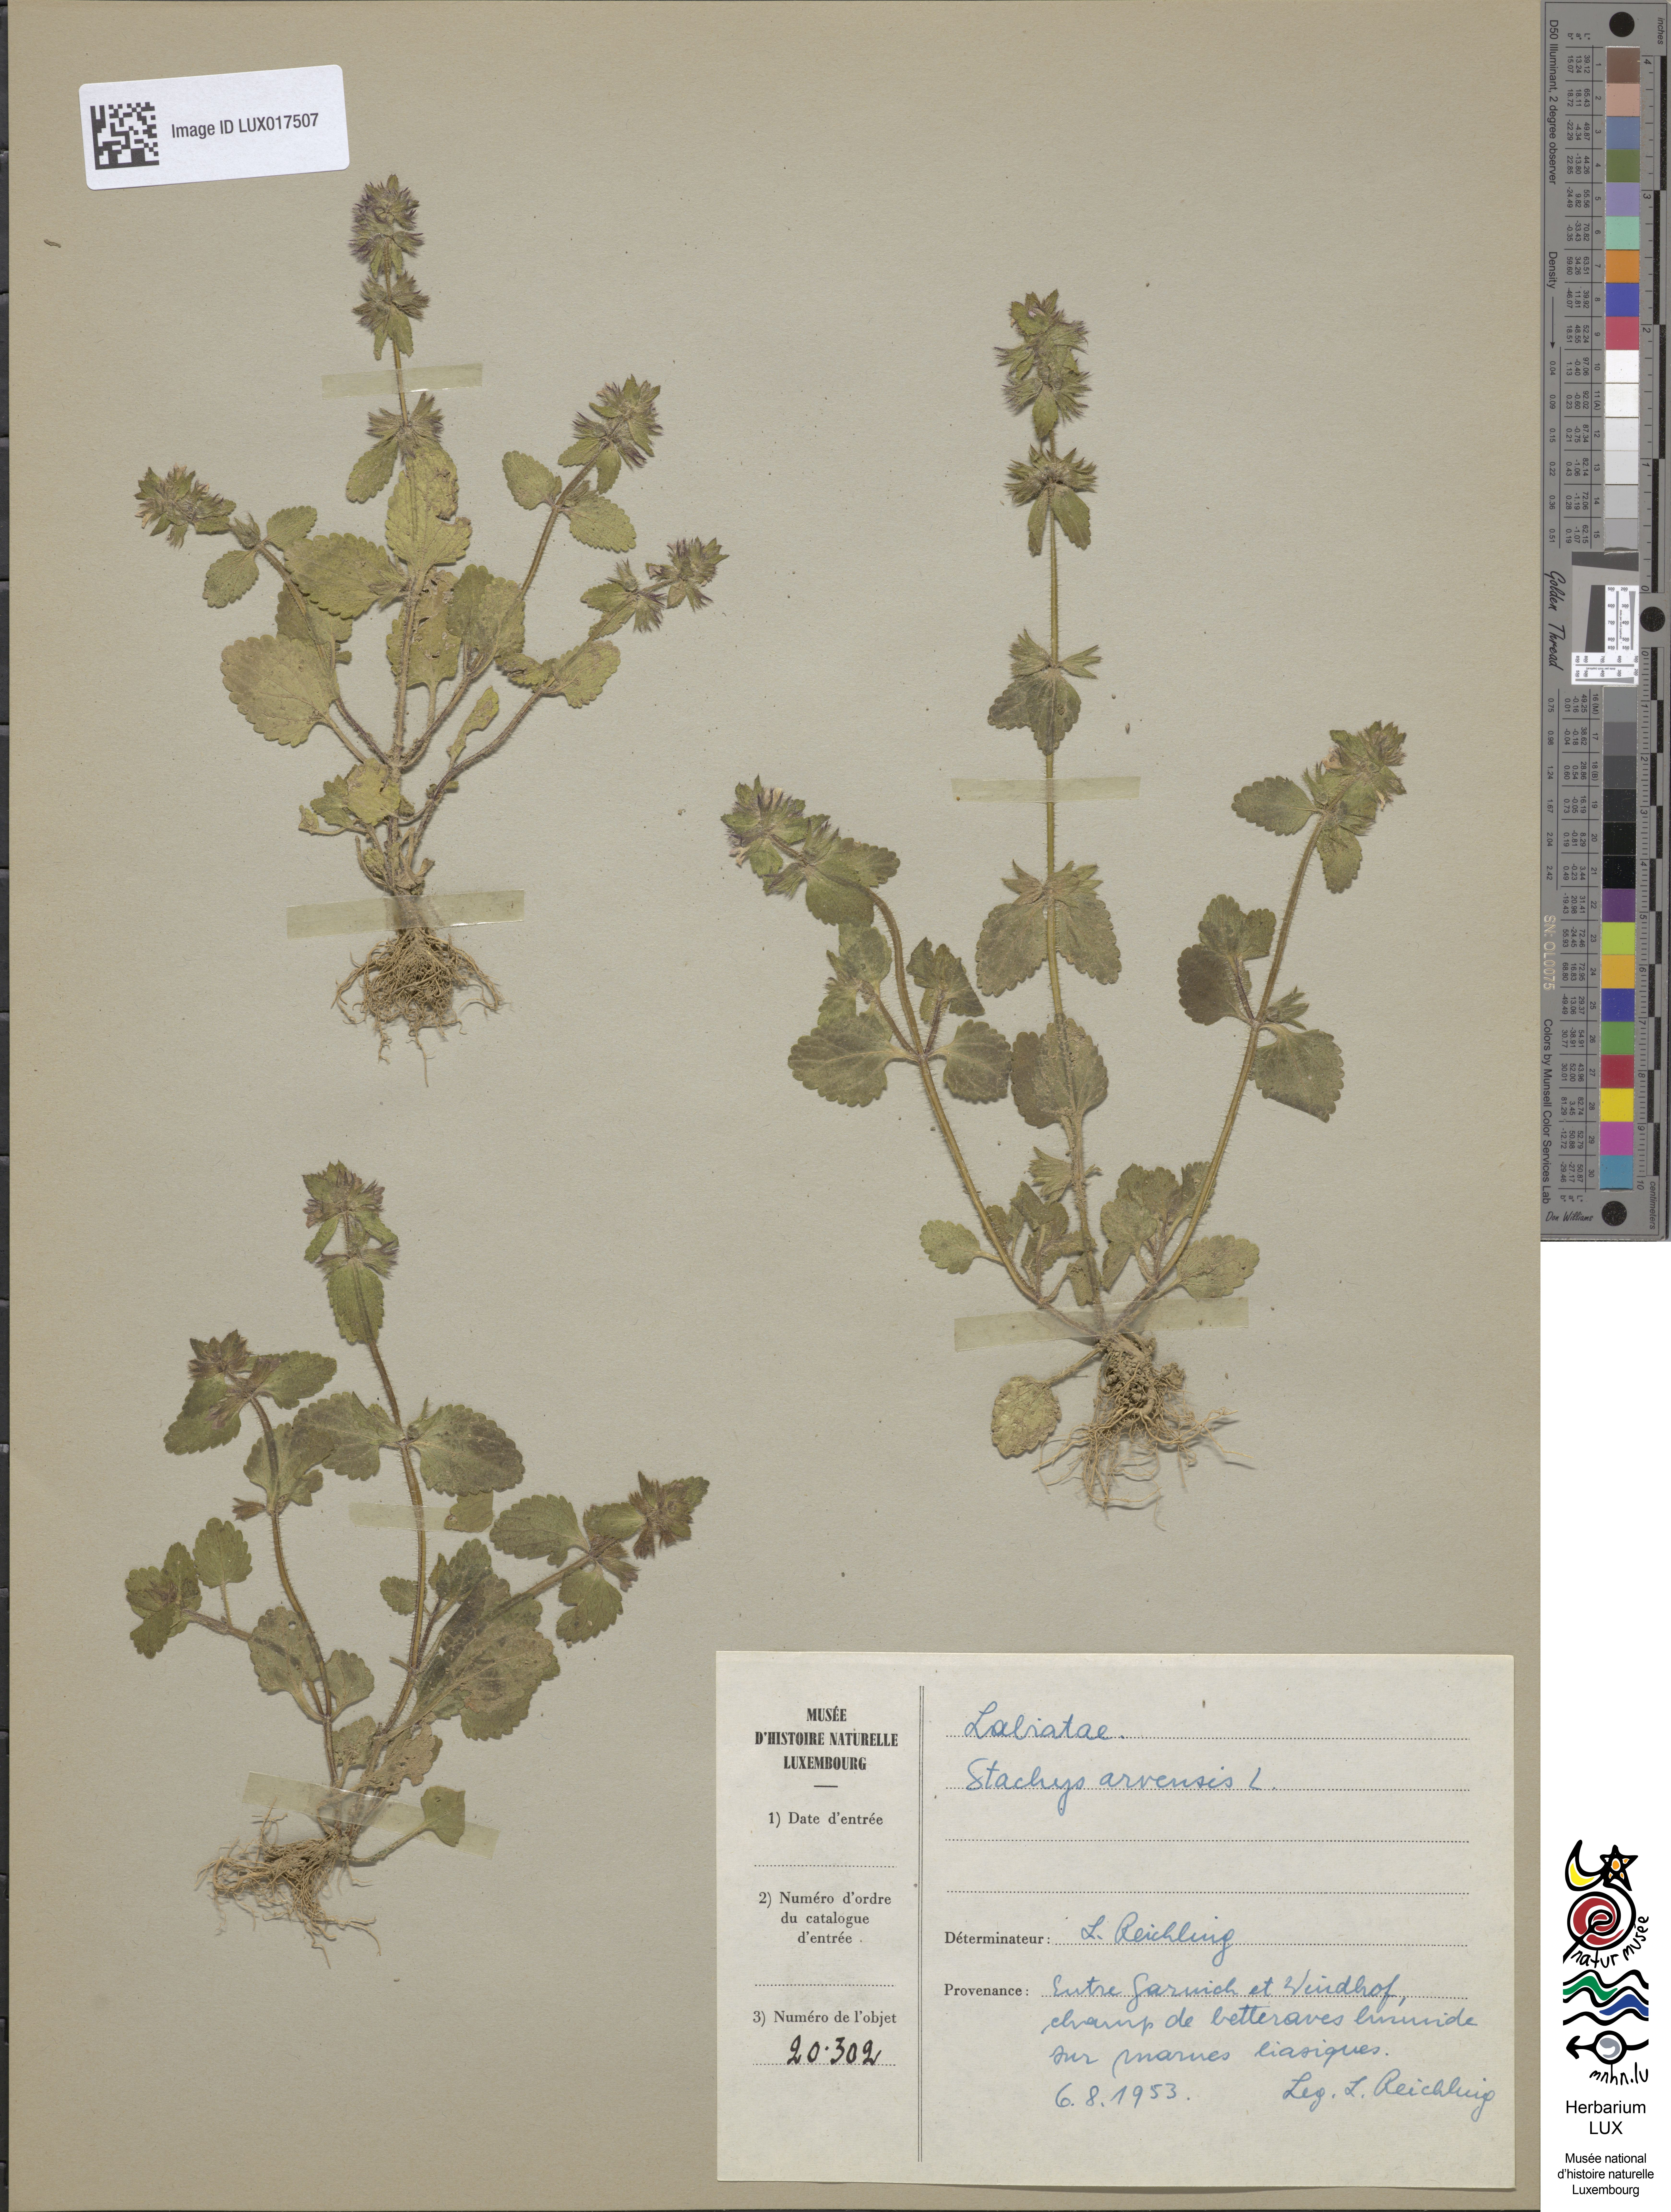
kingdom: Plantae
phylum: Tracheophyta
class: Magnoliopsida
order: Lamiales
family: Lamiaceae
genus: Stachys
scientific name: Stachys arvensis
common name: Field woundwort
